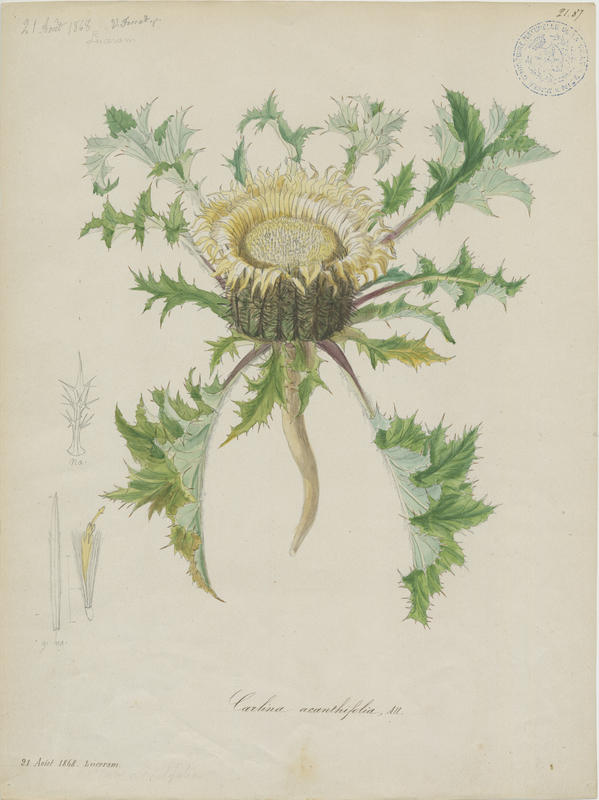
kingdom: Plantae
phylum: Tracheophyta
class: Magnoliopsida
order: Asterales
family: Asteraceae
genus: Carlina
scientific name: Carlina acanthifolia
